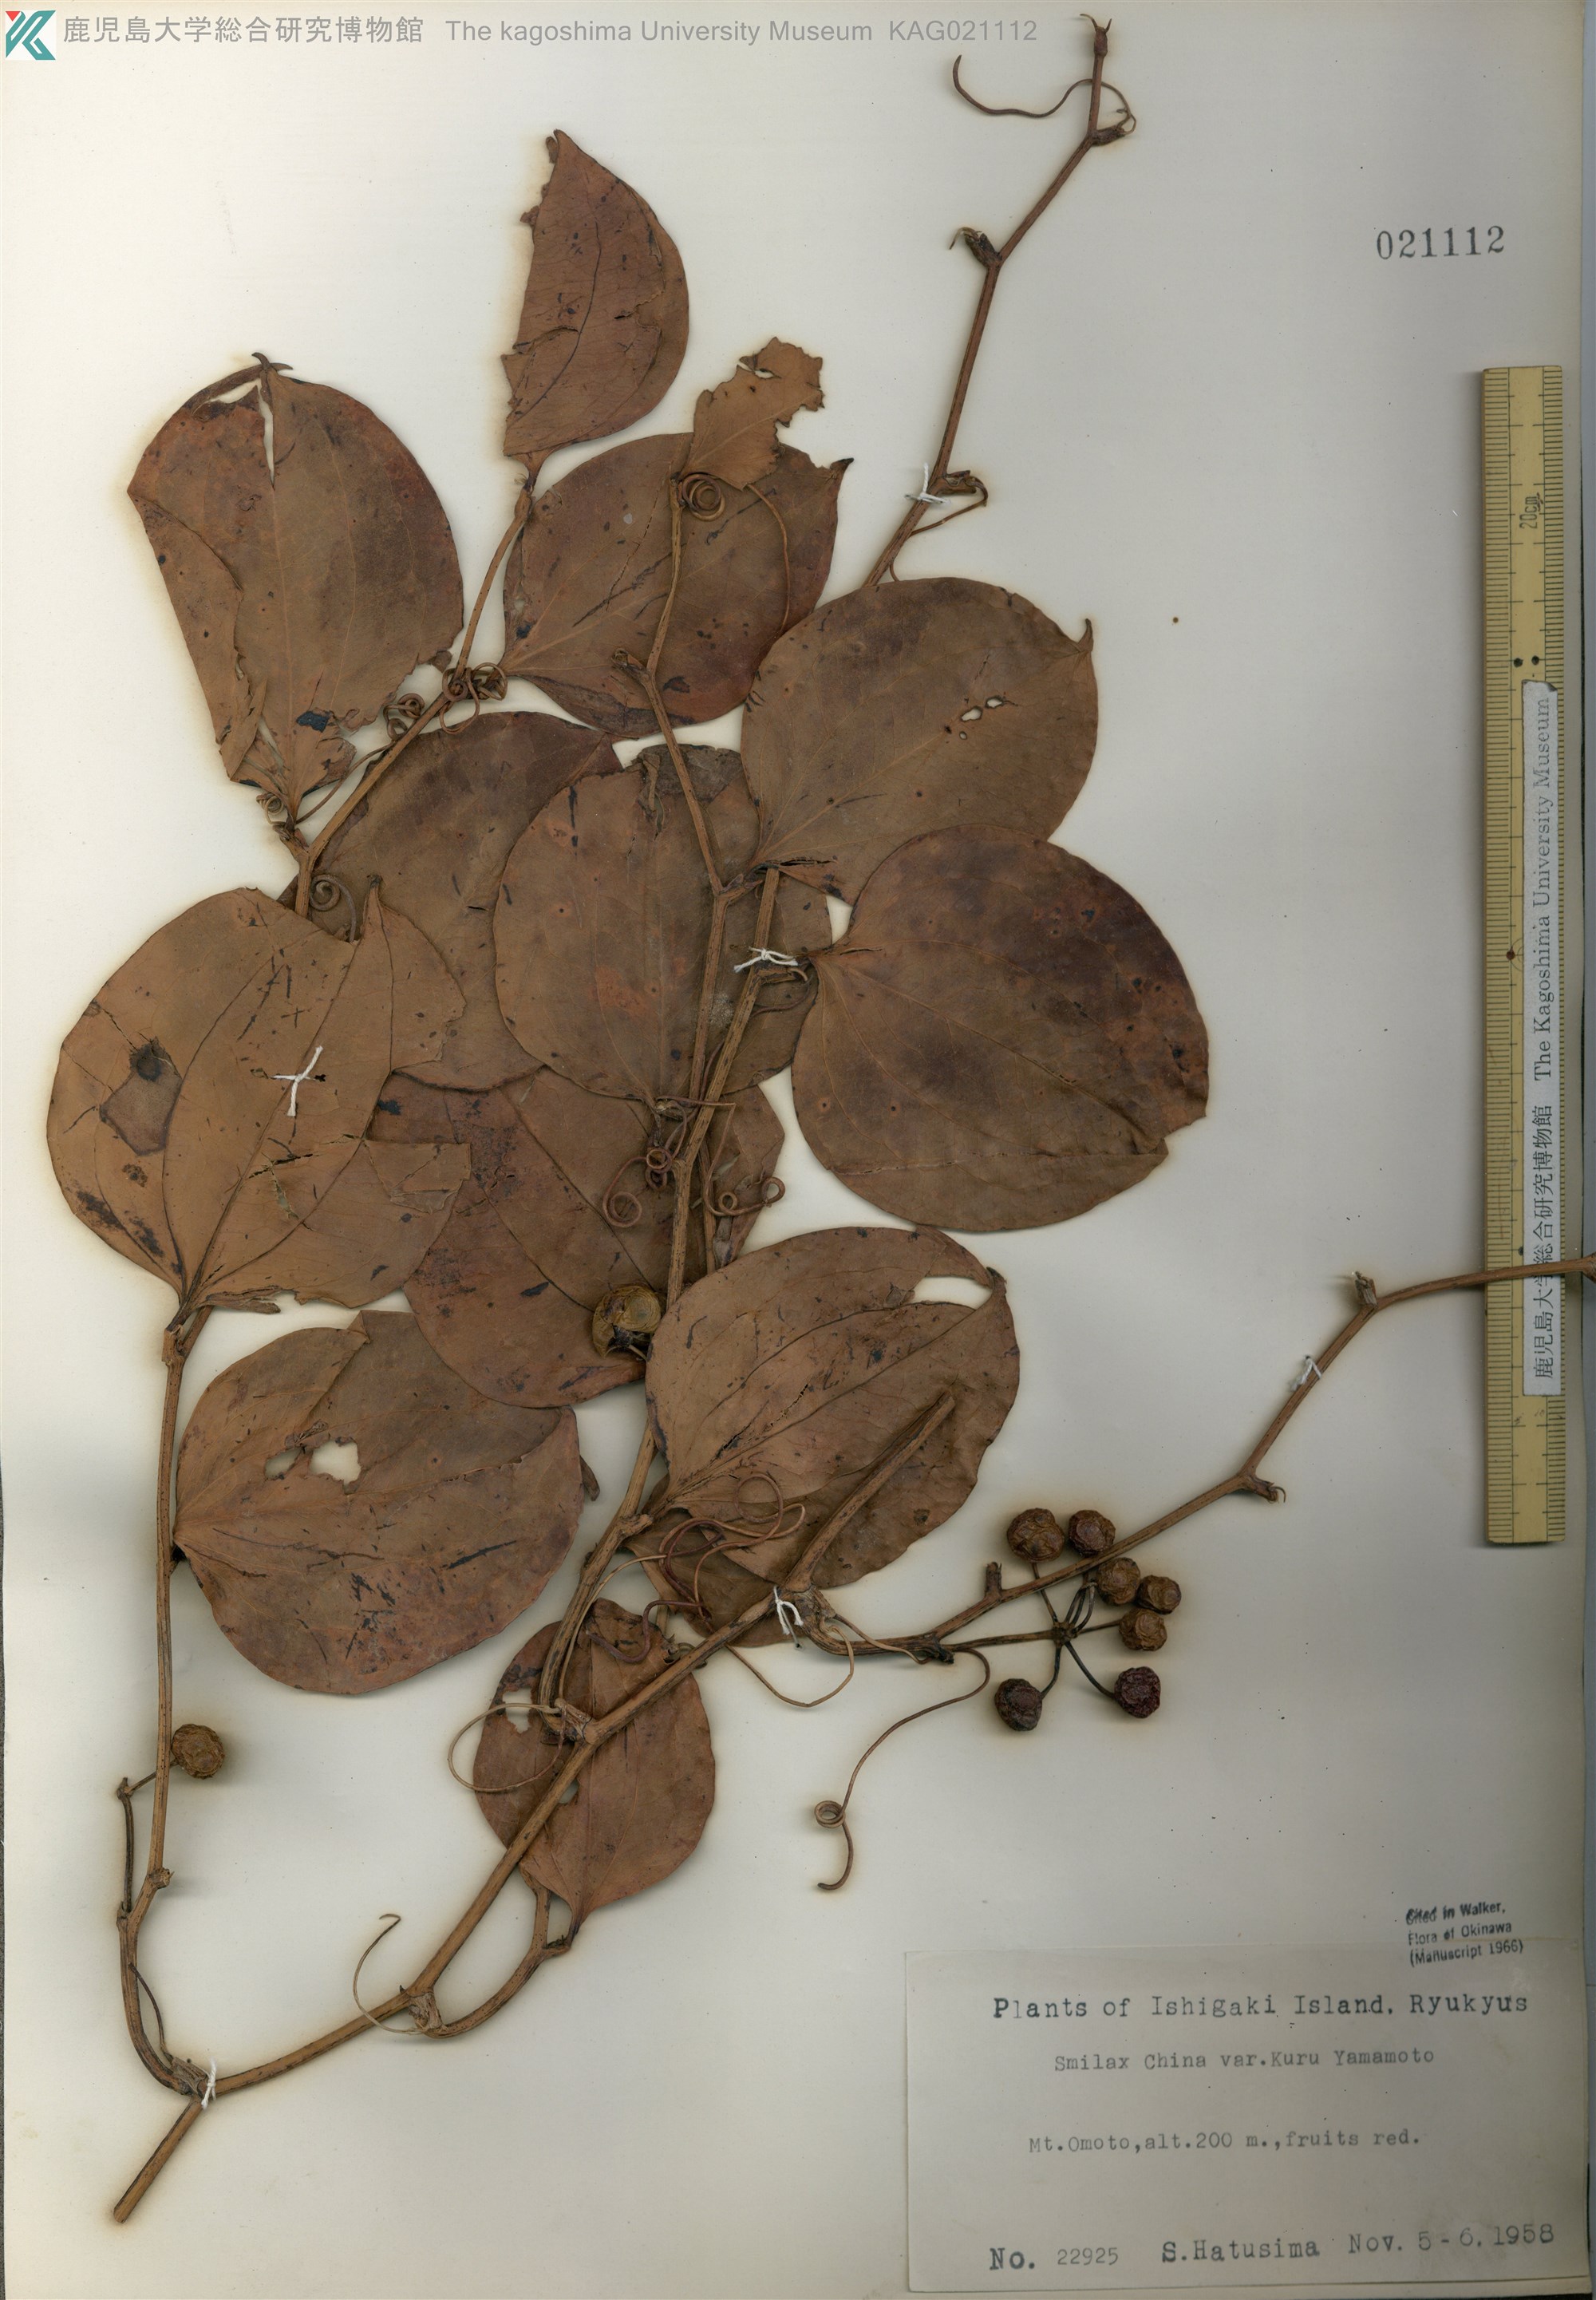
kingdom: Plantae
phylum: Tracheophyta
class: Liliopsida
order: Liliales
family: Smilacaceae
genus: Smilax
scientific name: Smilax china
